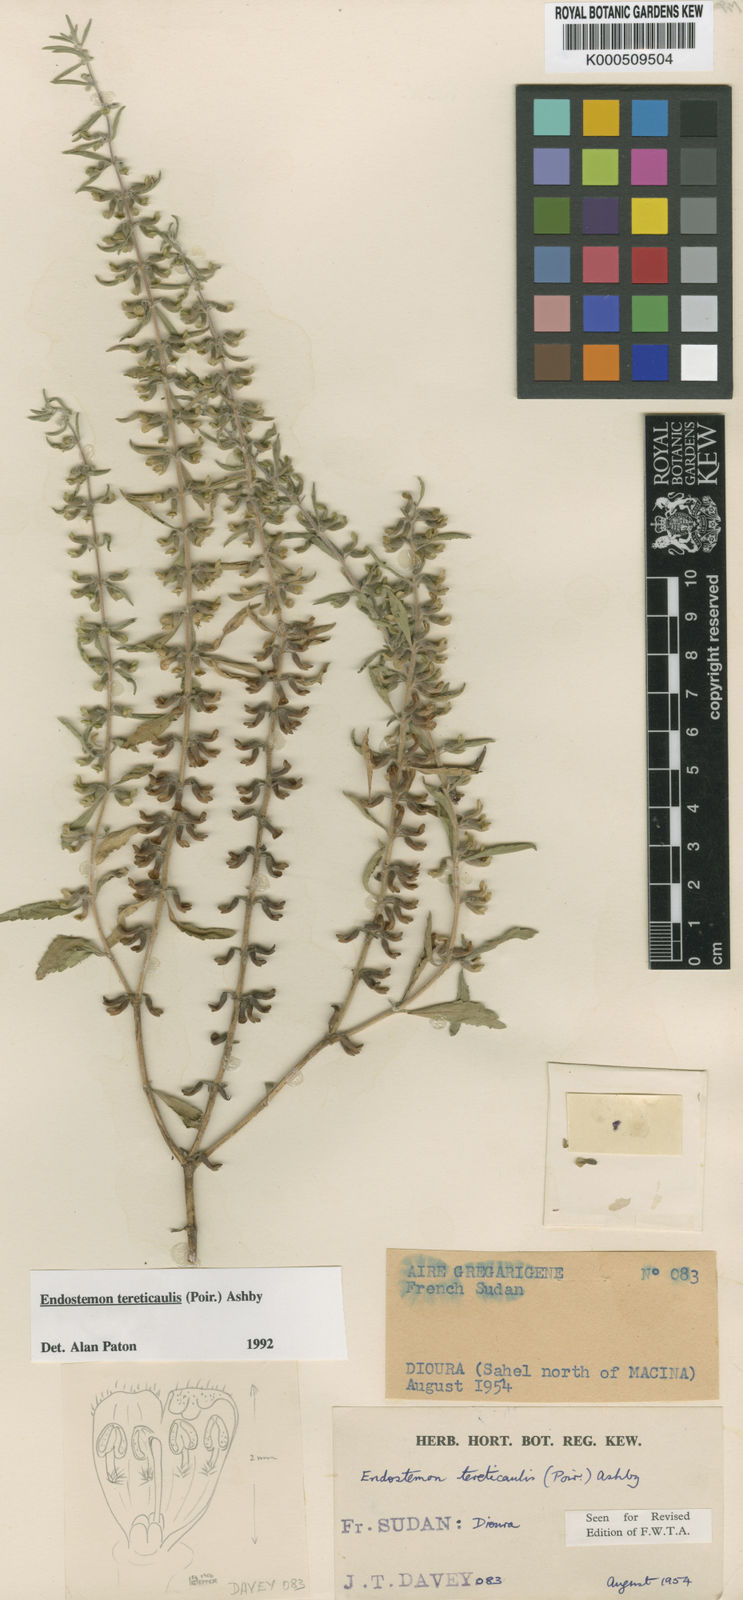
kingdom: Plantae
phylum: Tracheophyta
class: Magnoliopsida
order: Lamiales
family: Lamiaceae
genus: Endostemon
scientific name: Endostemon tereticaulis
